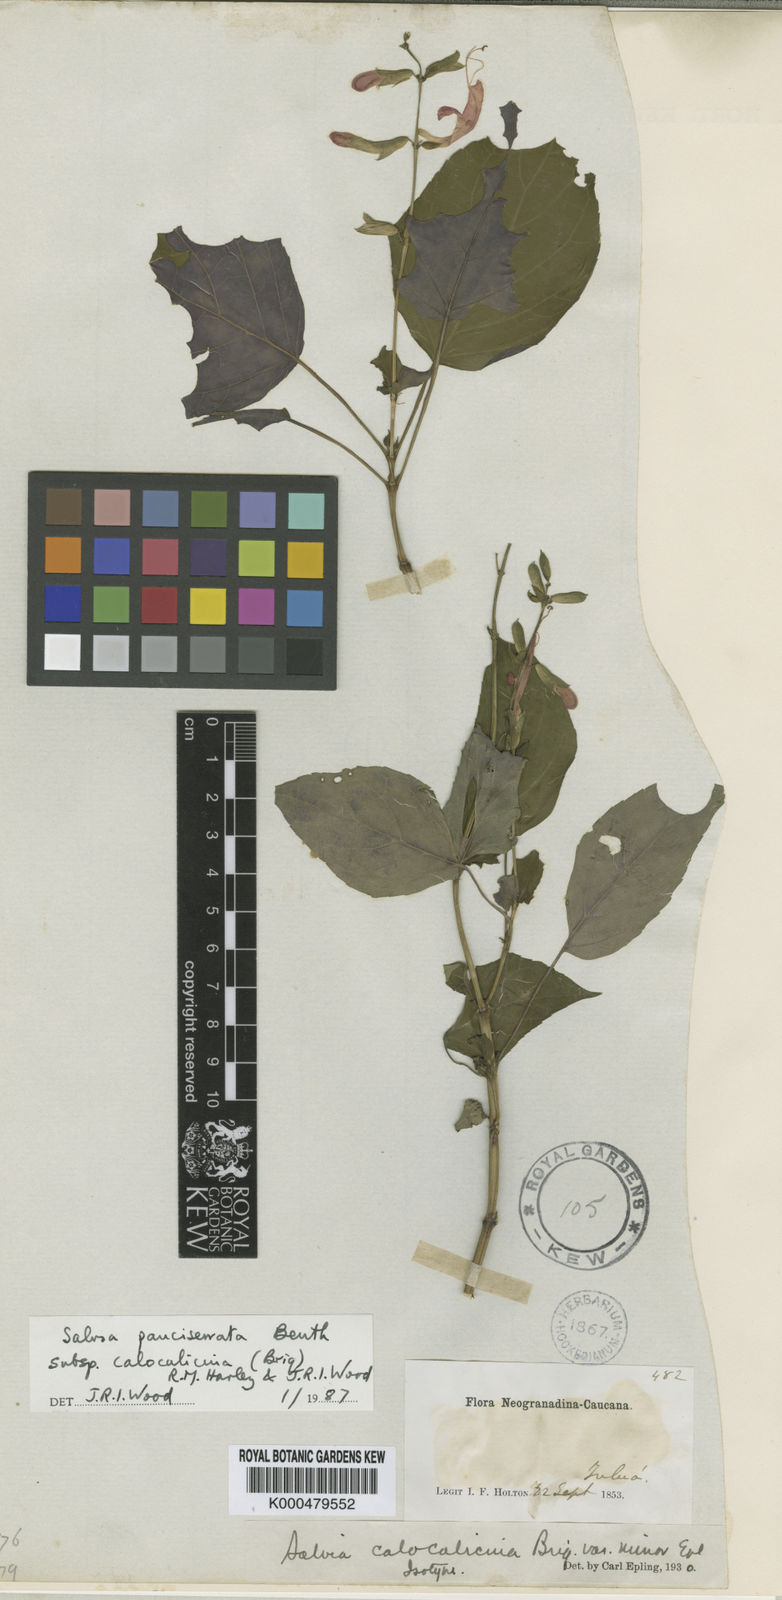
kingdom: Plantae
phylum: Tracheophyta
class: Magnoliopsida
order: Lamiales
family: Lamiaceae
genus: Salvia
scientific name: Salvia pauciserrata
